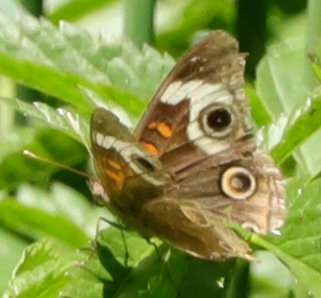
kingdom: Animalia
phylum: Arthropoda
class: Insecta
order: Lepidoptera
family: Nymphalidae
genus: Junonia
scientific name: Junonia coenia
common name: Common Buckeye
